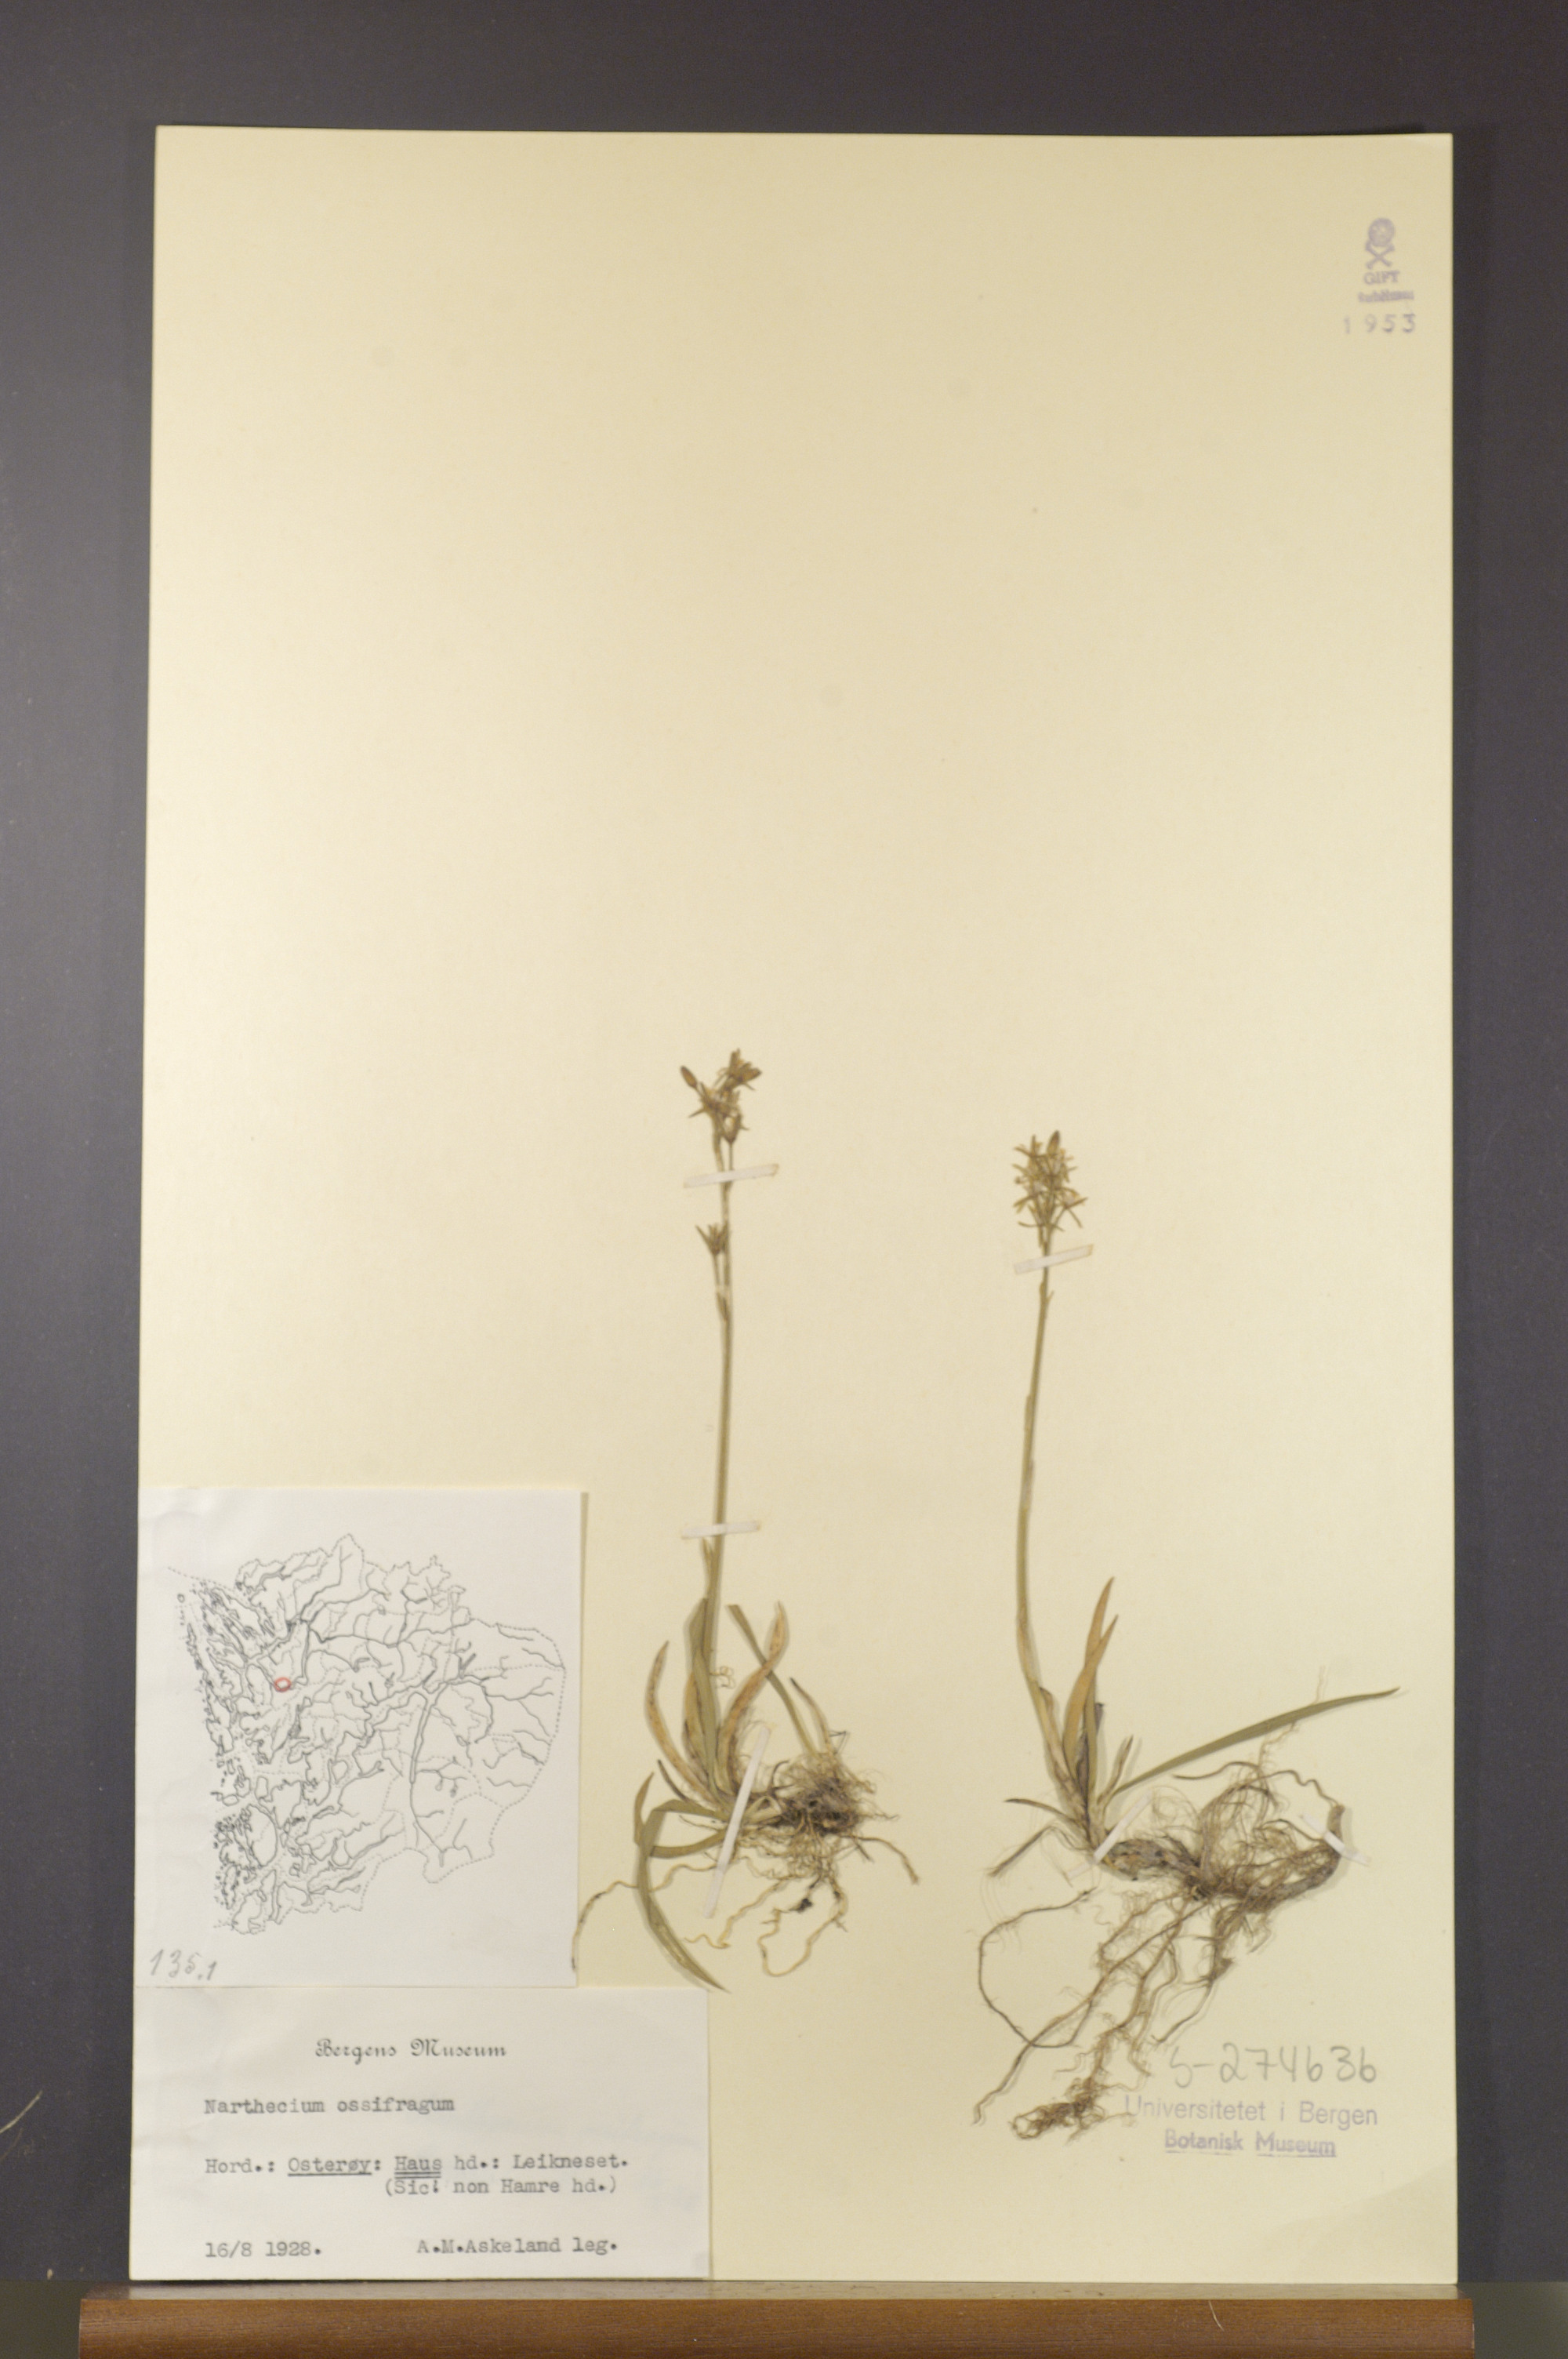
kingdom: Plantae
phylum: Tracheophyta
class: Liliopsida
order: Dioscoreales
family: Nartheciaceae
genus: Narthecium
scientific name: Narthecium ossifragum
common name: Bog asphodel
